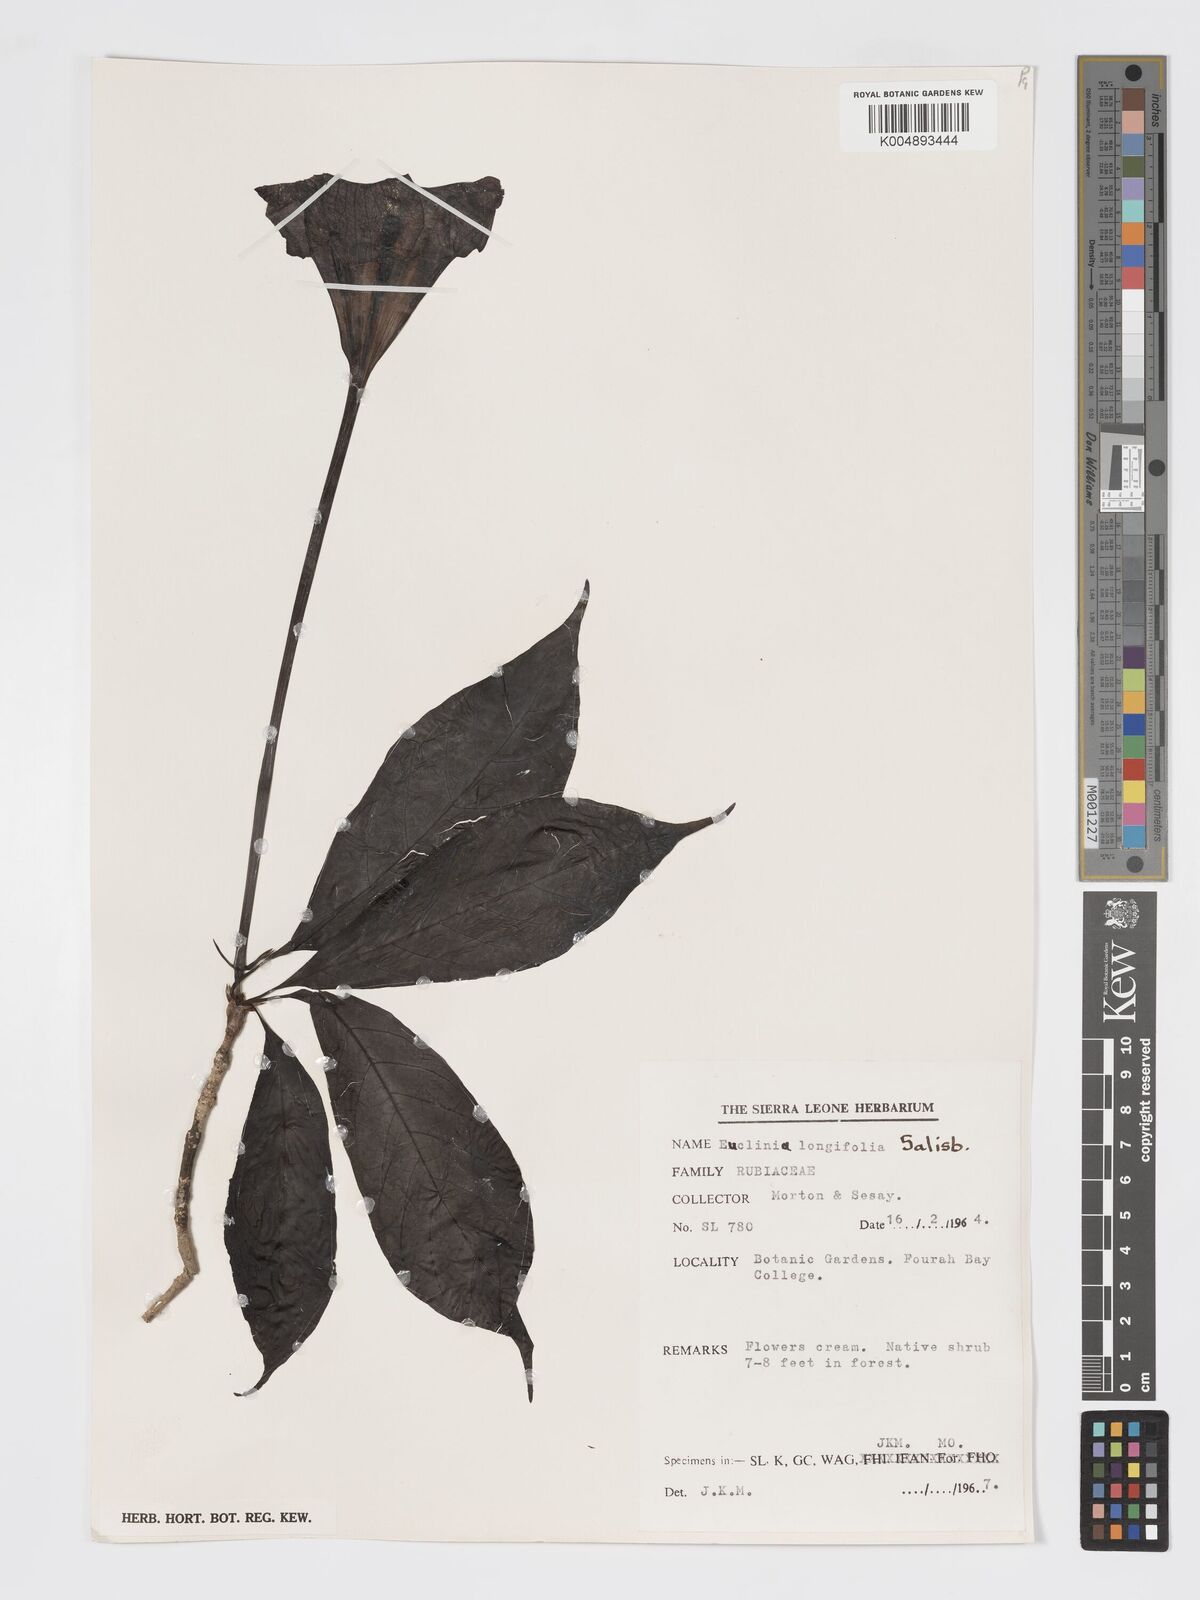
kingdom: Plantae
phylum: Tracheophyta
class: Magnoliopsida
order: Gentianales
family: Rubiaceae
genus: Euclinia
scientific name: Euclinia longiflora
